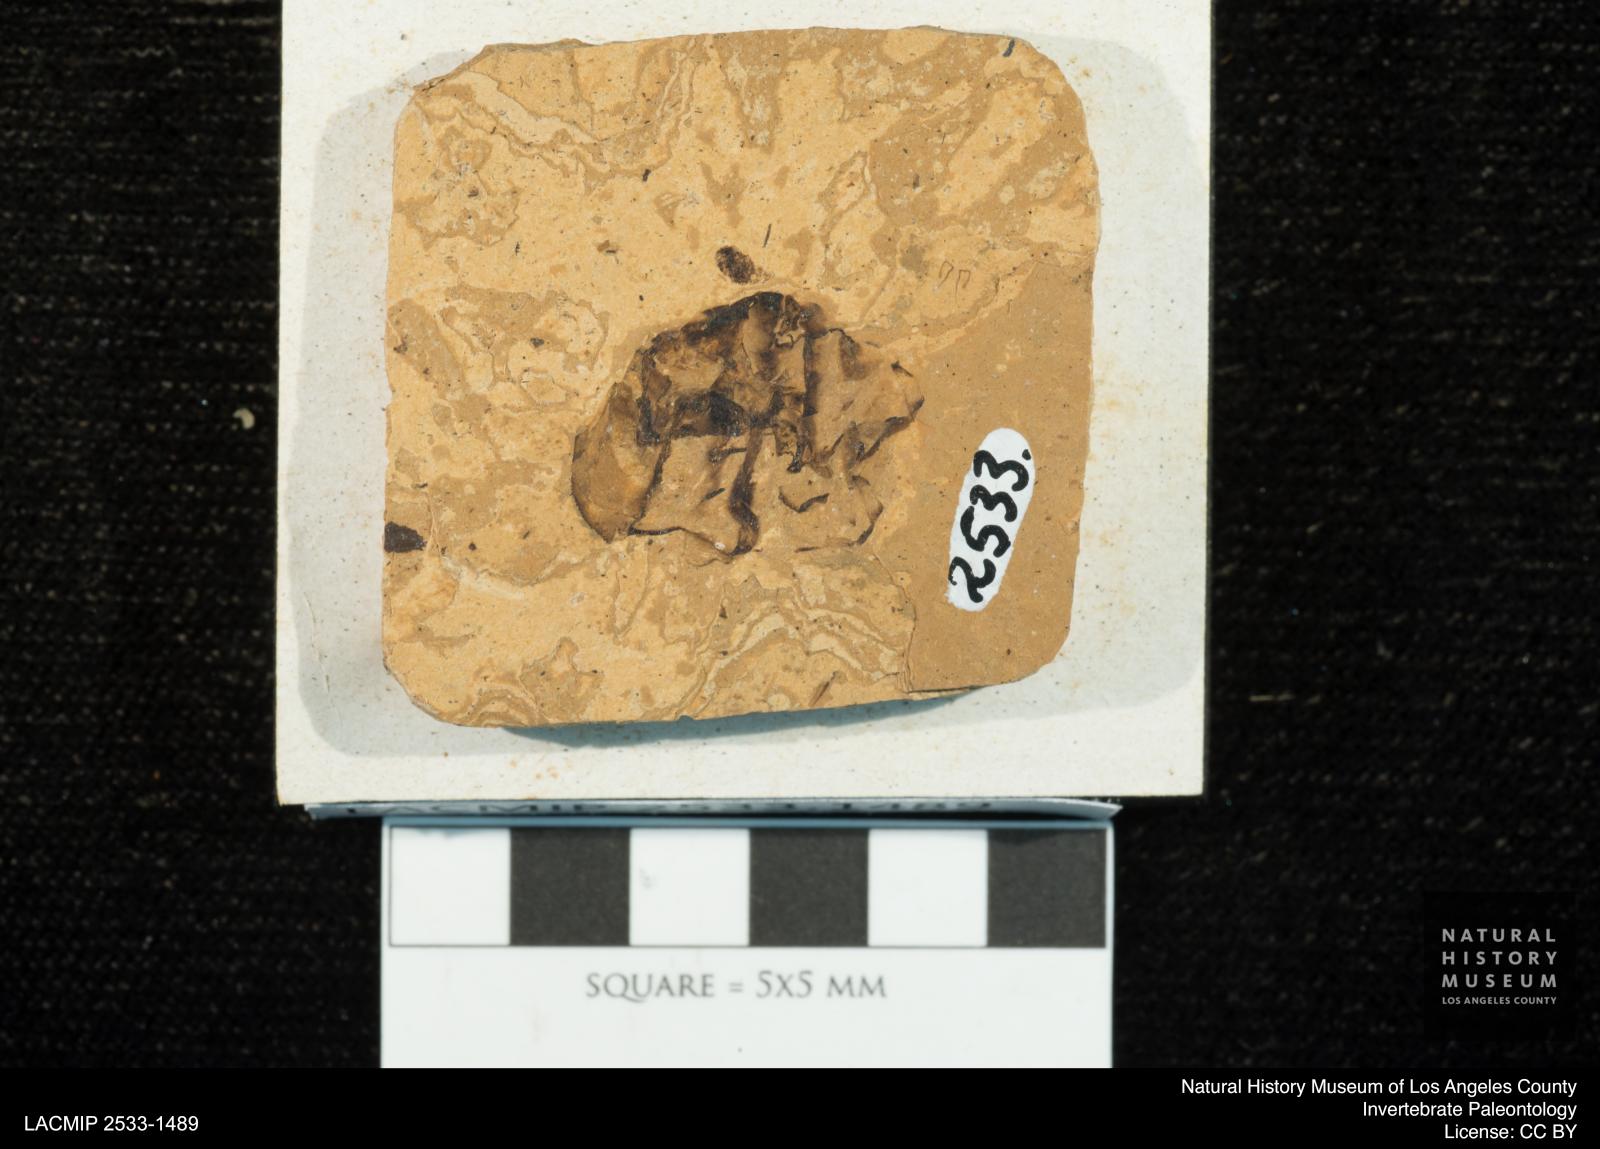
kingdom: Animalia
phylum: Arthropoda
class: Insecta
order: Odonata
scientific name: Odonata
